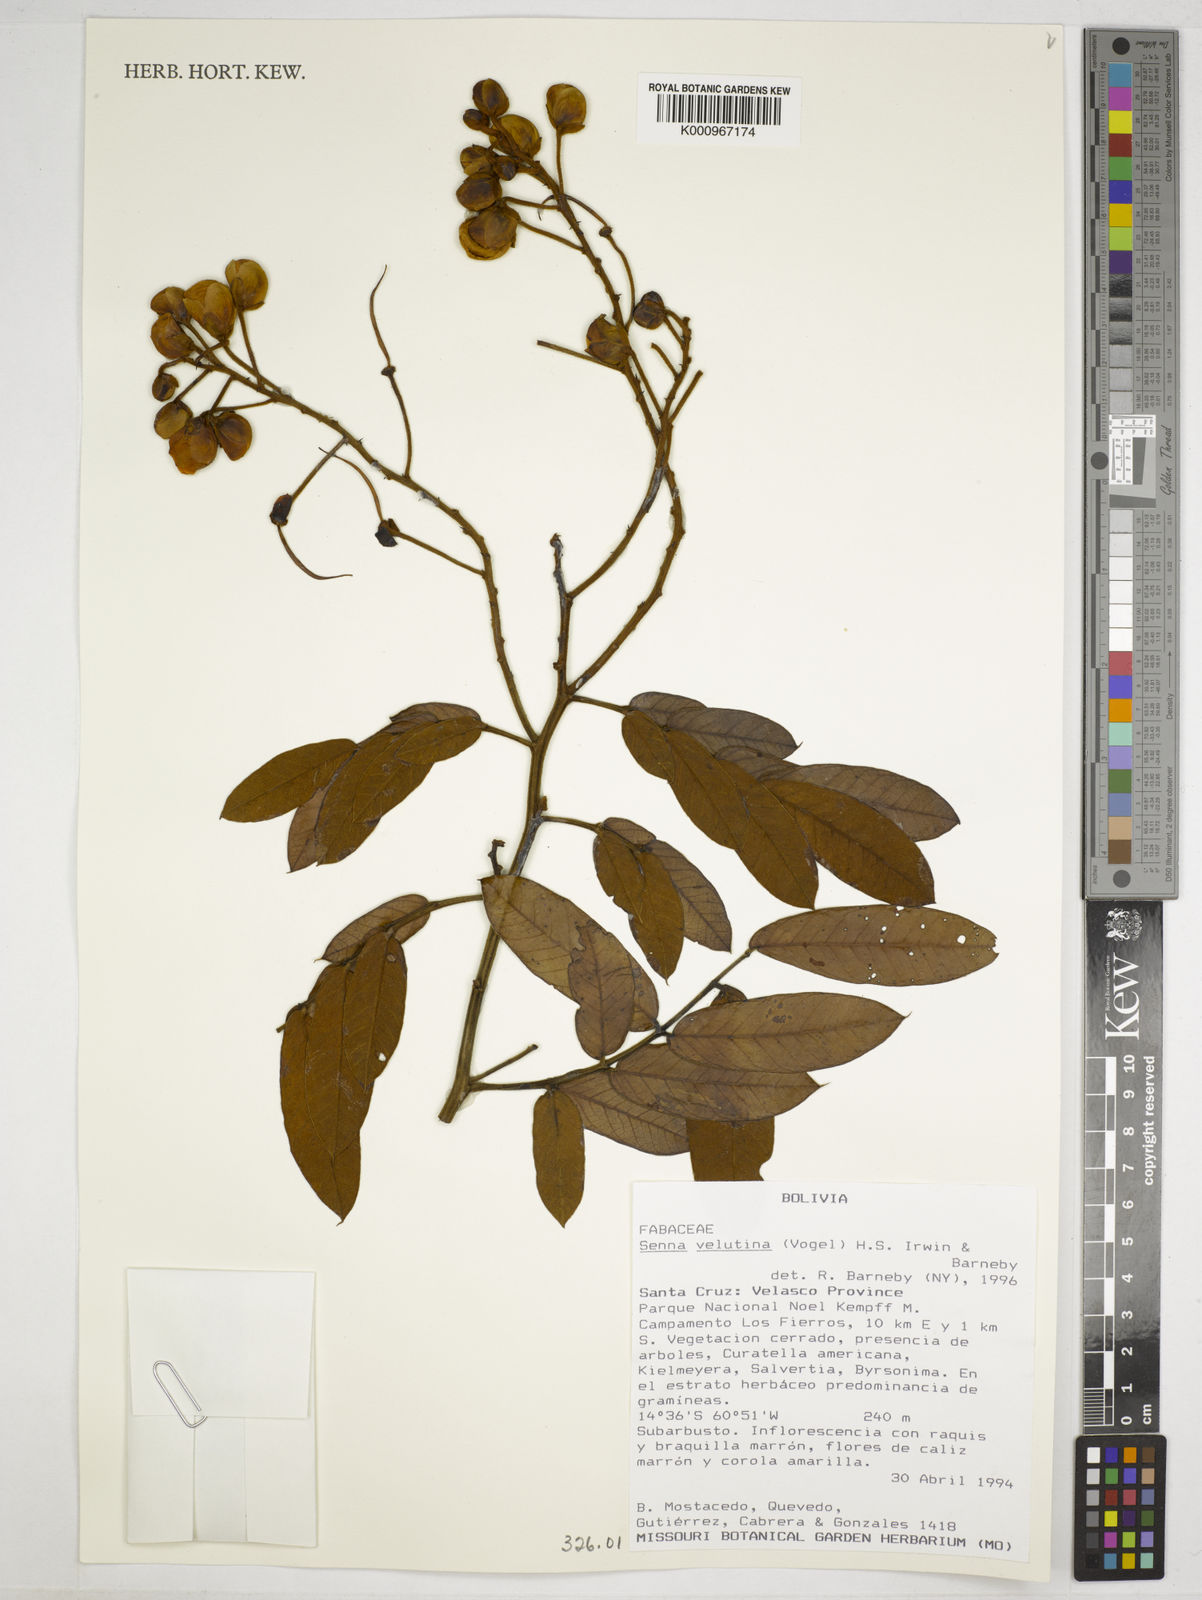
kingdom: Plantae
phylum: Tracheophyta
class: Magnoliopsida
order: Fabales
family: Fabaceae
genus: Senna
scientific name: Senna velutina
